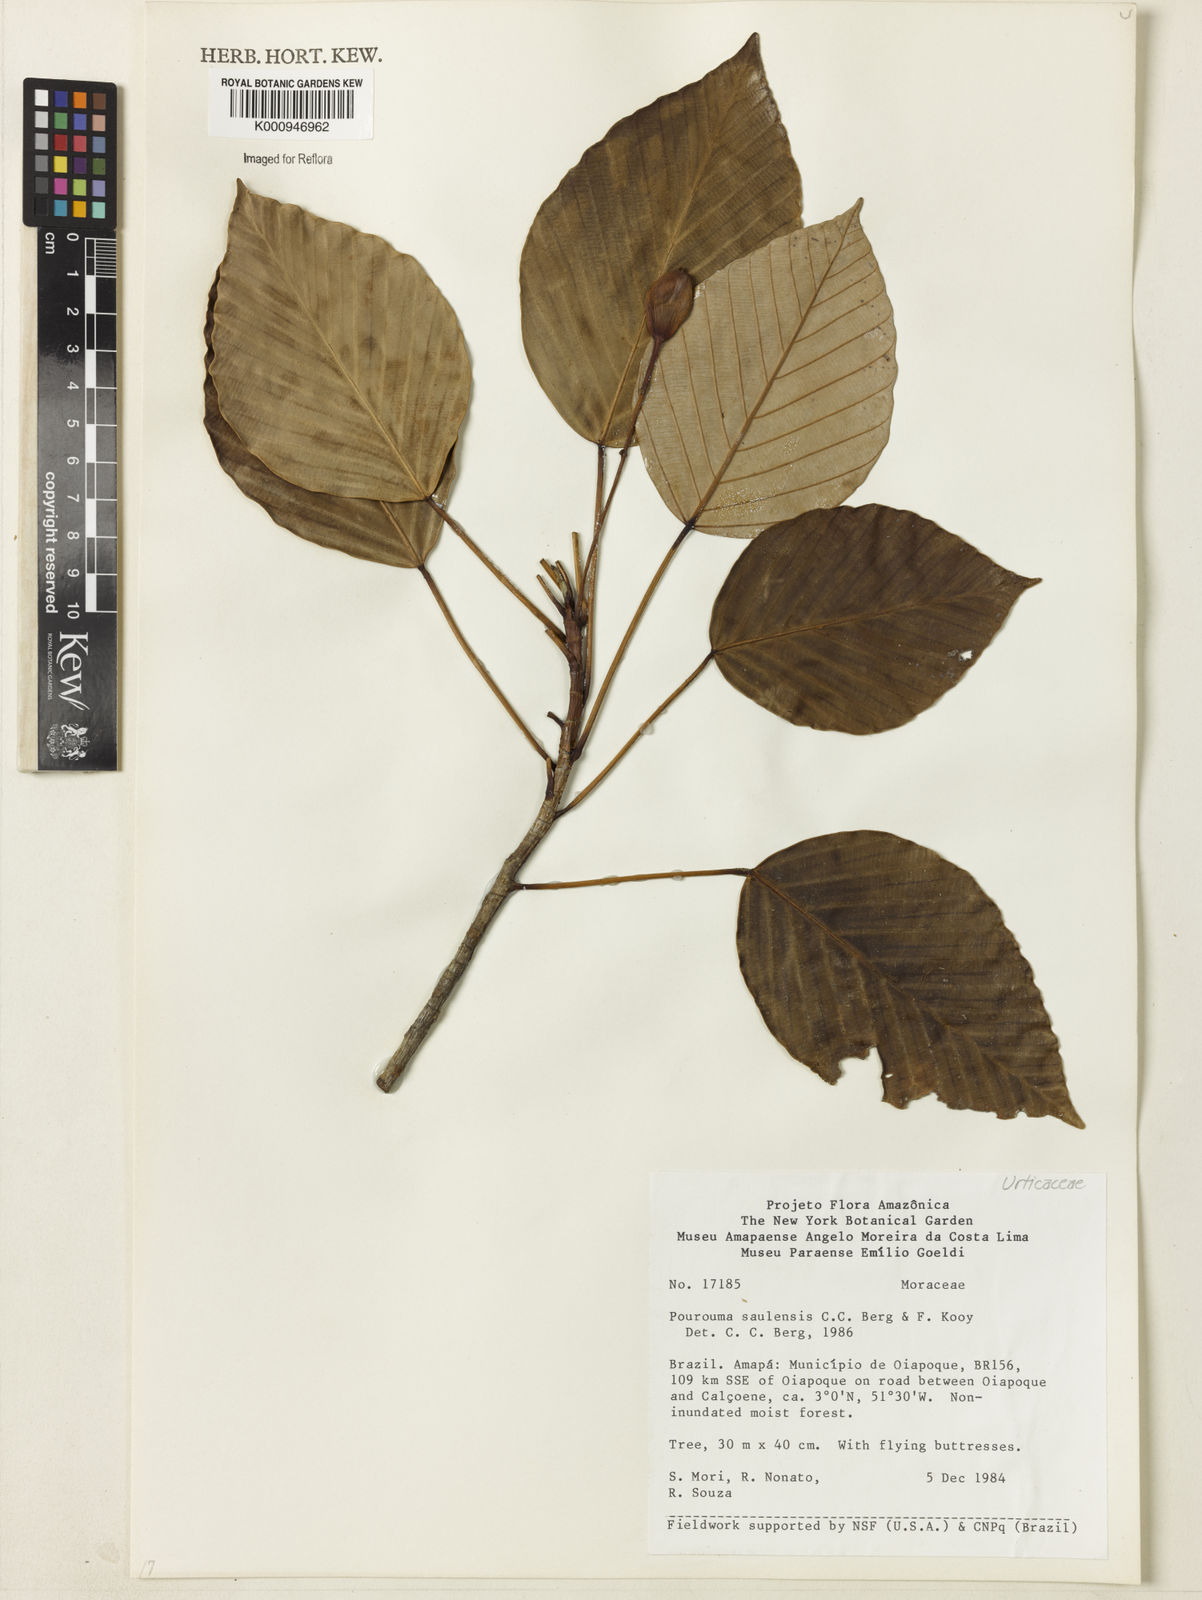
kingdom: Plantae
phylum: Tracheophyta
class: Magnoliopsida
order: Rosales
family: Urticaceae
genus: Pourouma
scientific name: Pourouma saulensis
